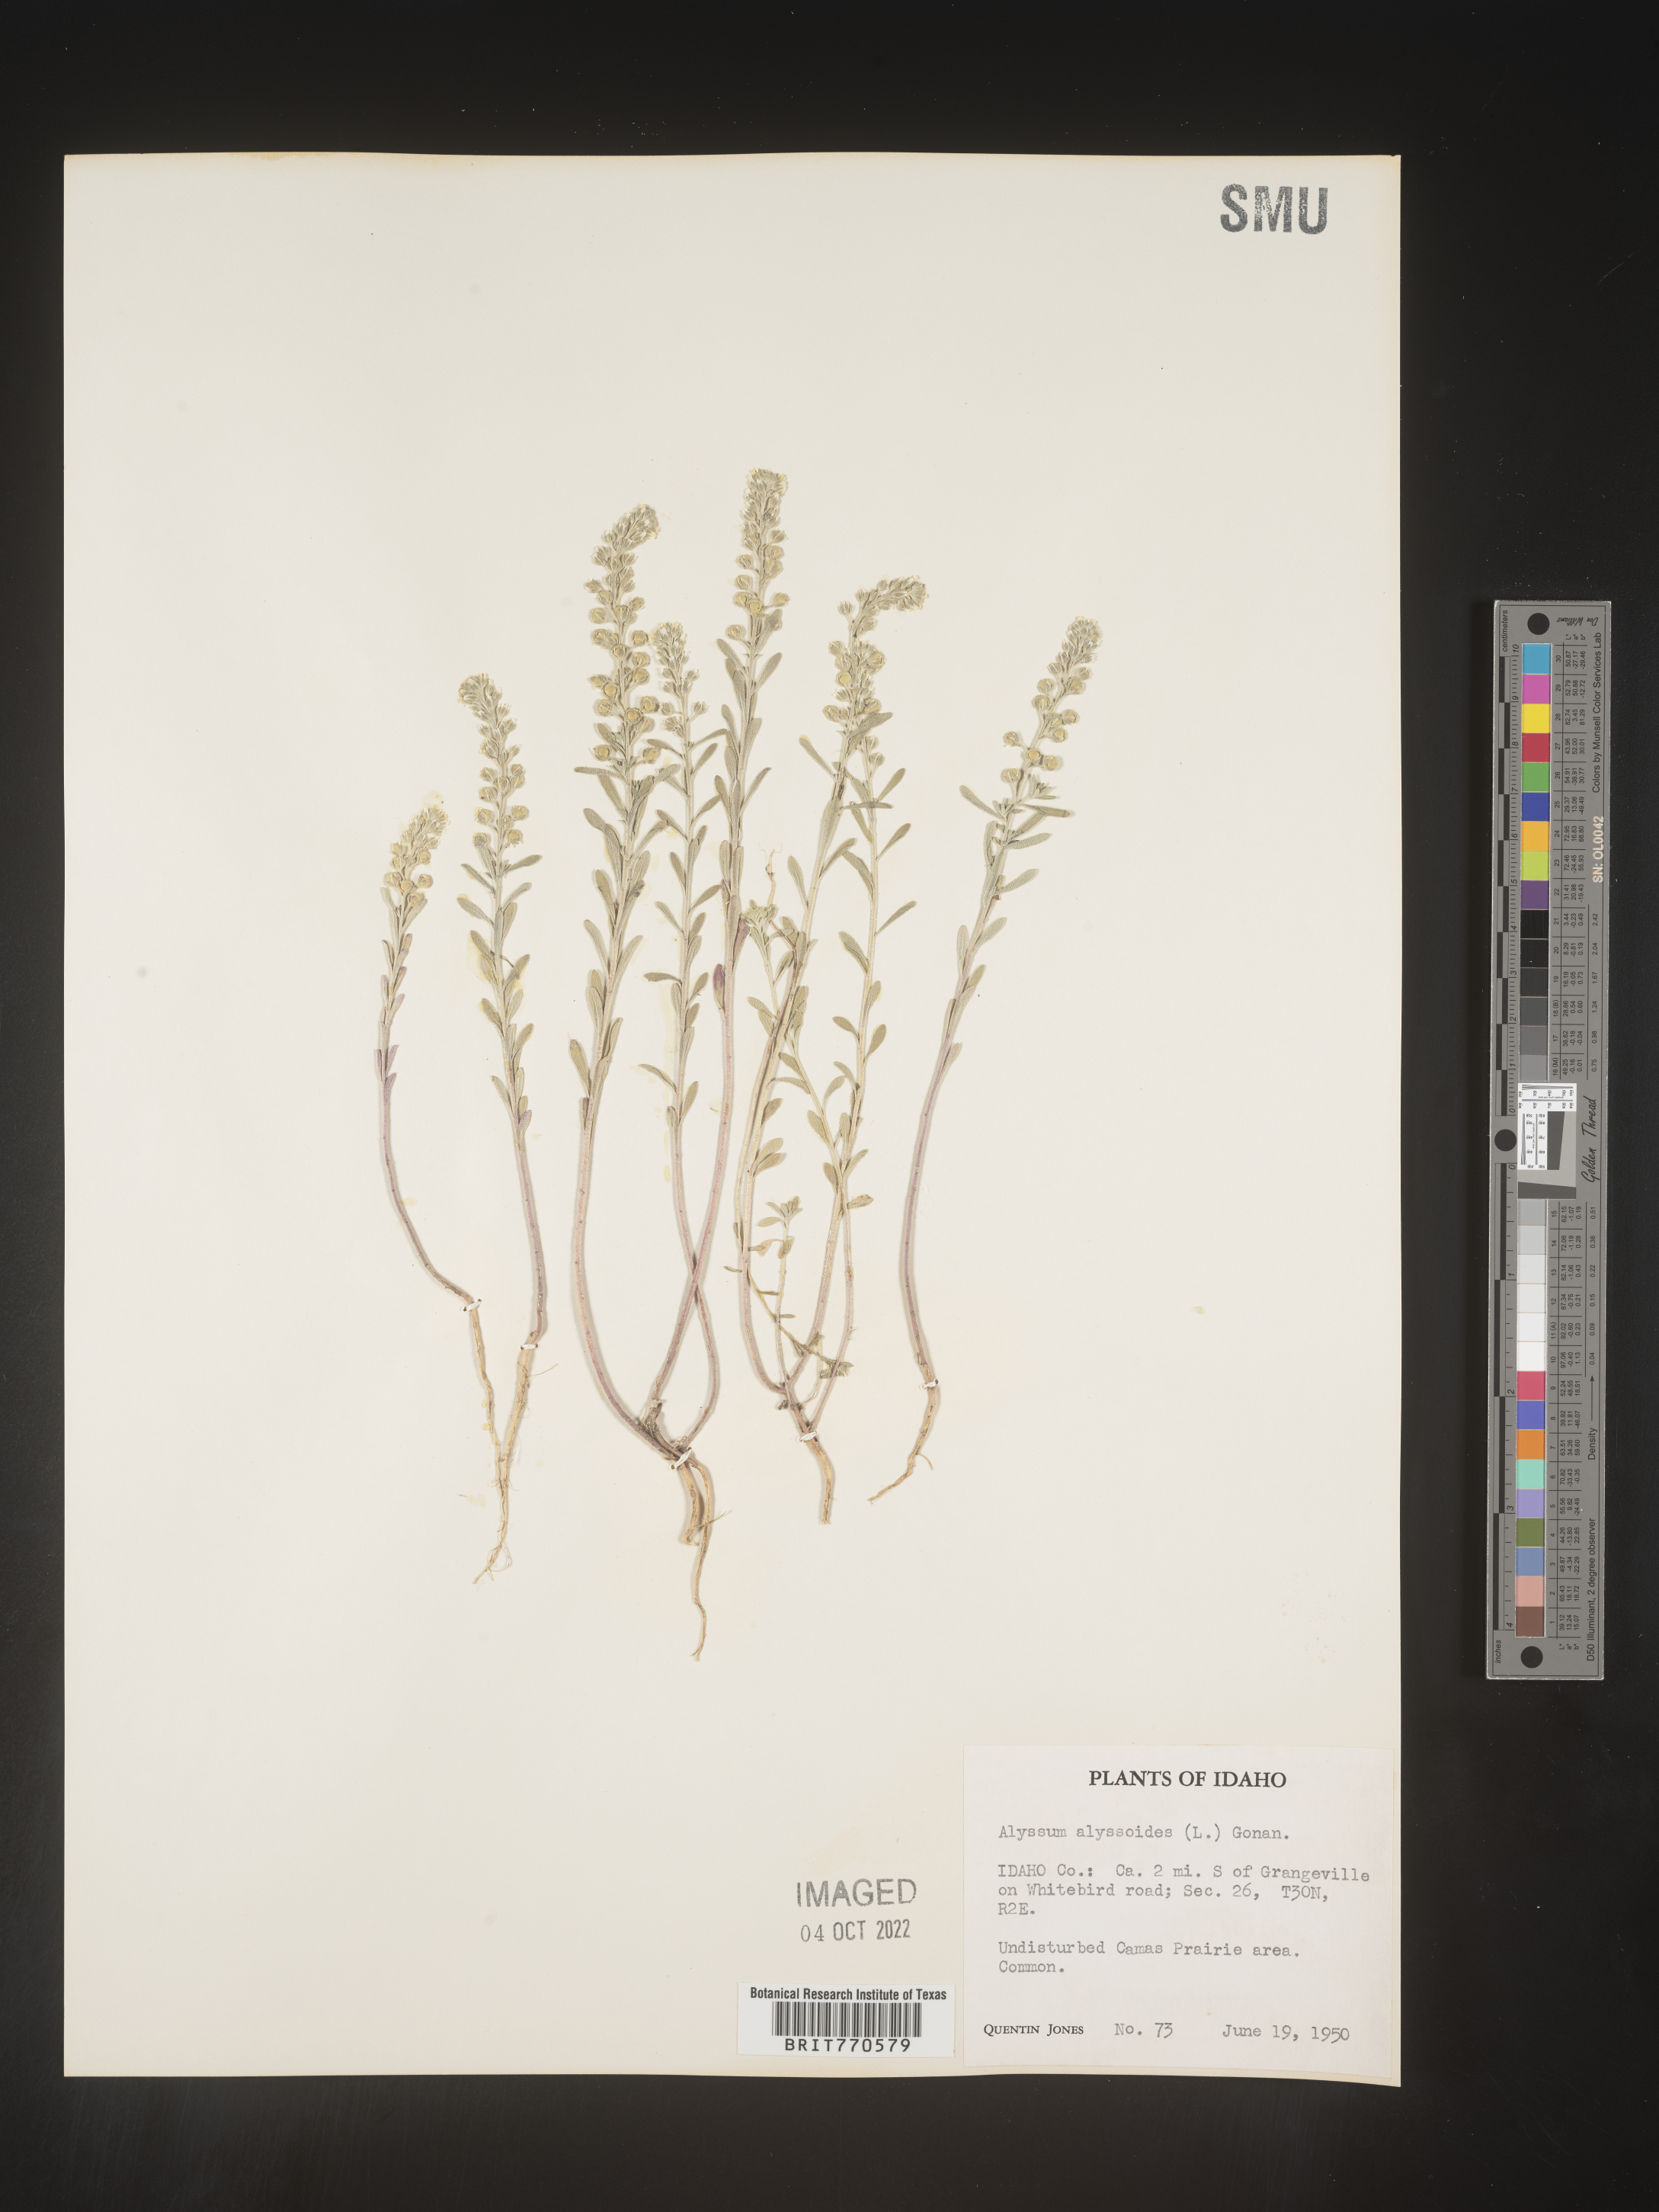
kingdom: Plantae
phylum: Tracheophyta
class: Magnoliopsida
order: Brassicales
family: Brassicaceae
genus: Alyssum
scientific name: Alyssum alyssoides
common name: Small alison
